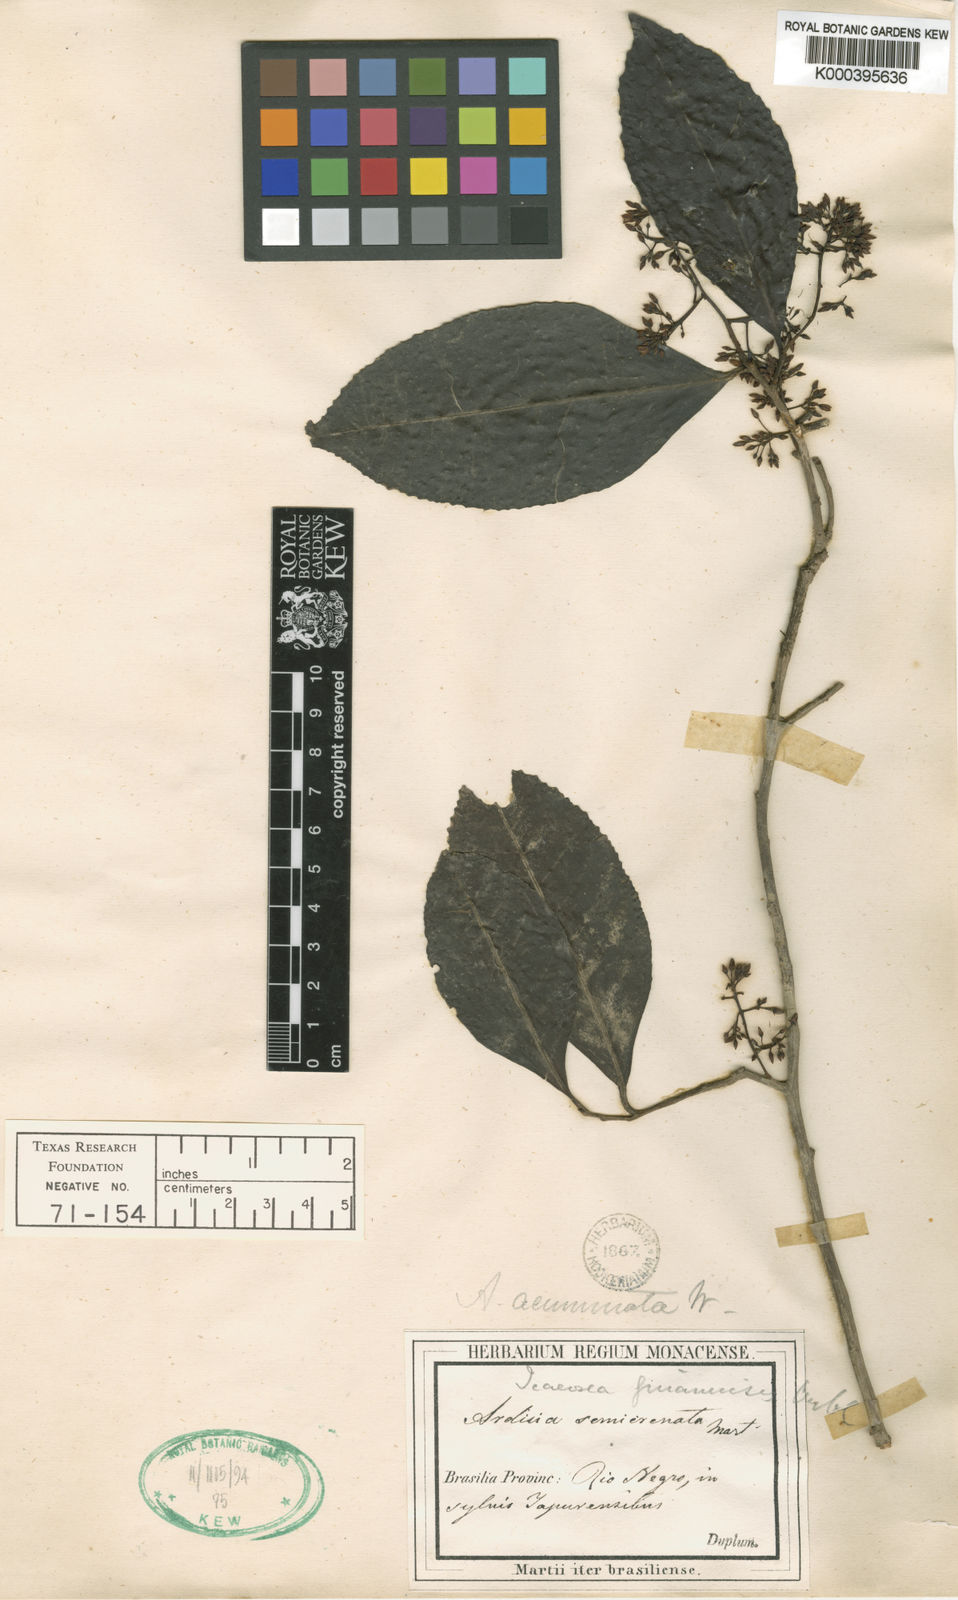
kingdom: Plantae
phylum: Tracheophyta
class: Magnoliopsida
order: Ericales
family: Primulaceae
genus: Ardisia
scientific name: Ardisia guianensis
